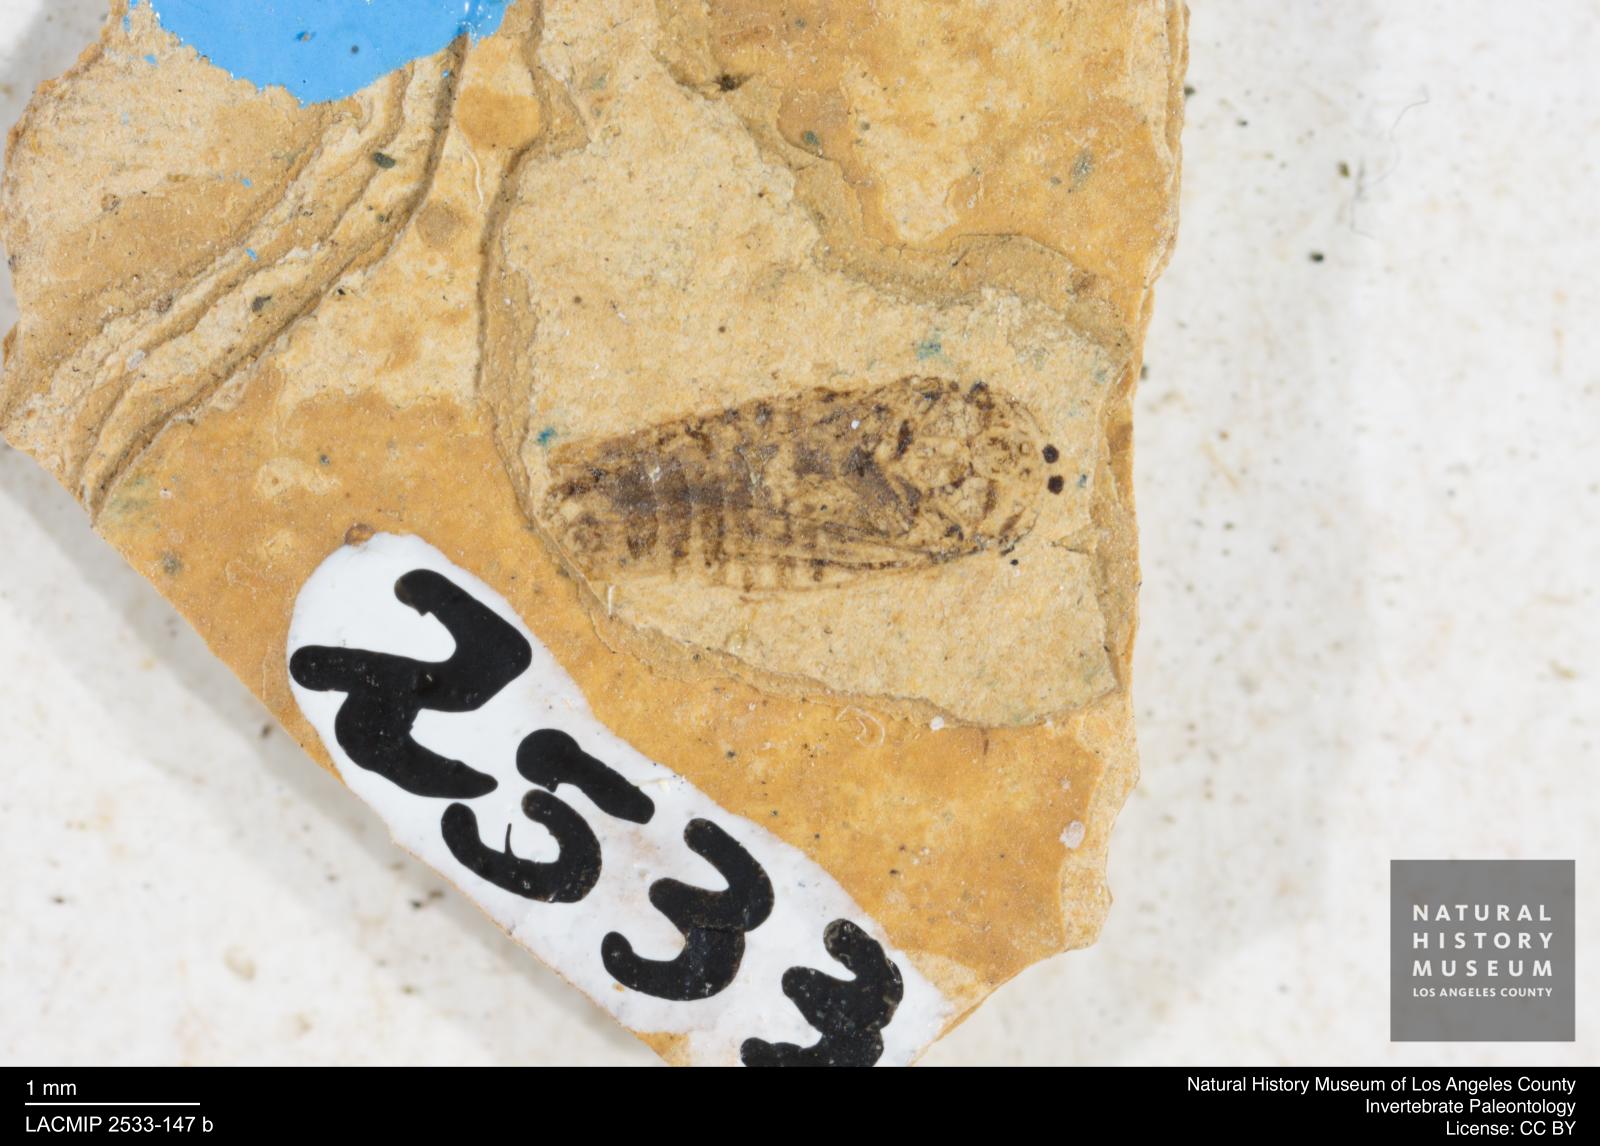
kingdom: Animalia
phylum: Arthropoda
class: Insecta
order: Hemiptera
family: Cicadellidae
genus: Iassus
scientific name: Iassus sepultus
